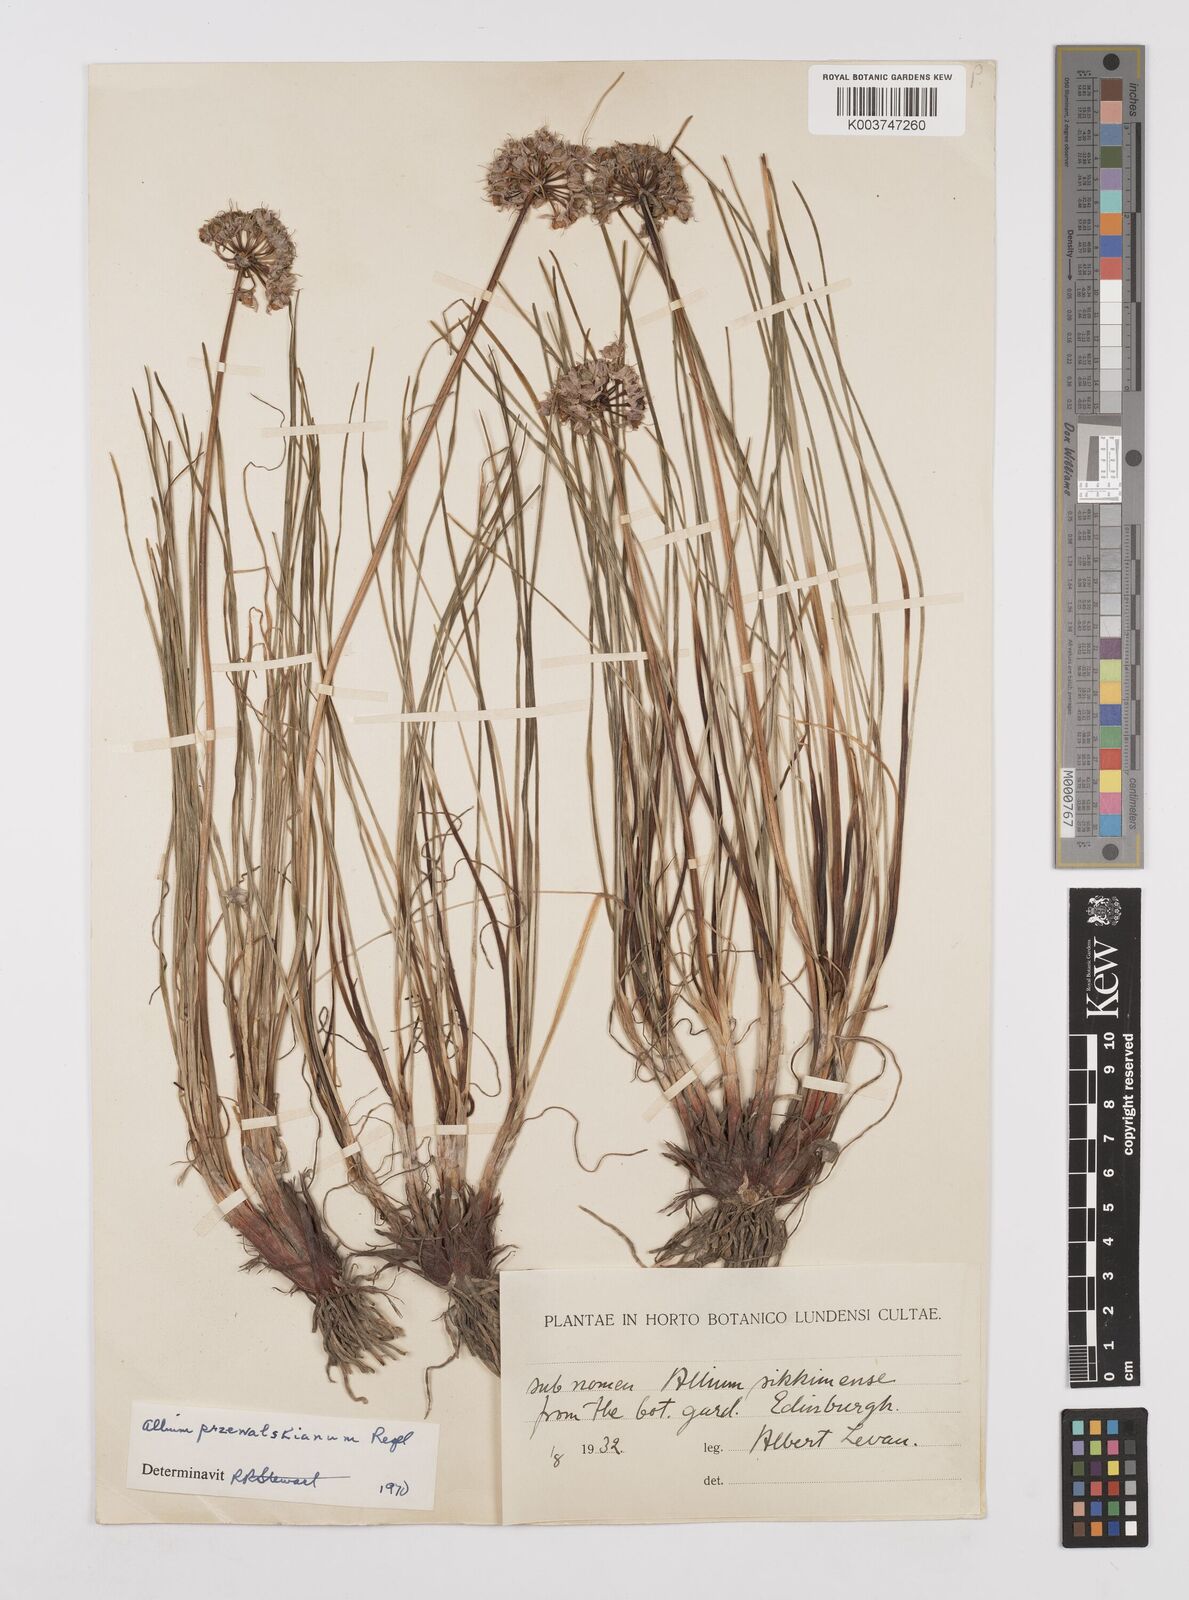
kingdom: Plantae
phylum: Tracheophyta
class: Liliopsida
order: Asparagales
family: Amaryllidaceae
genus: Allium
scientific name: Allium przewalskianum
